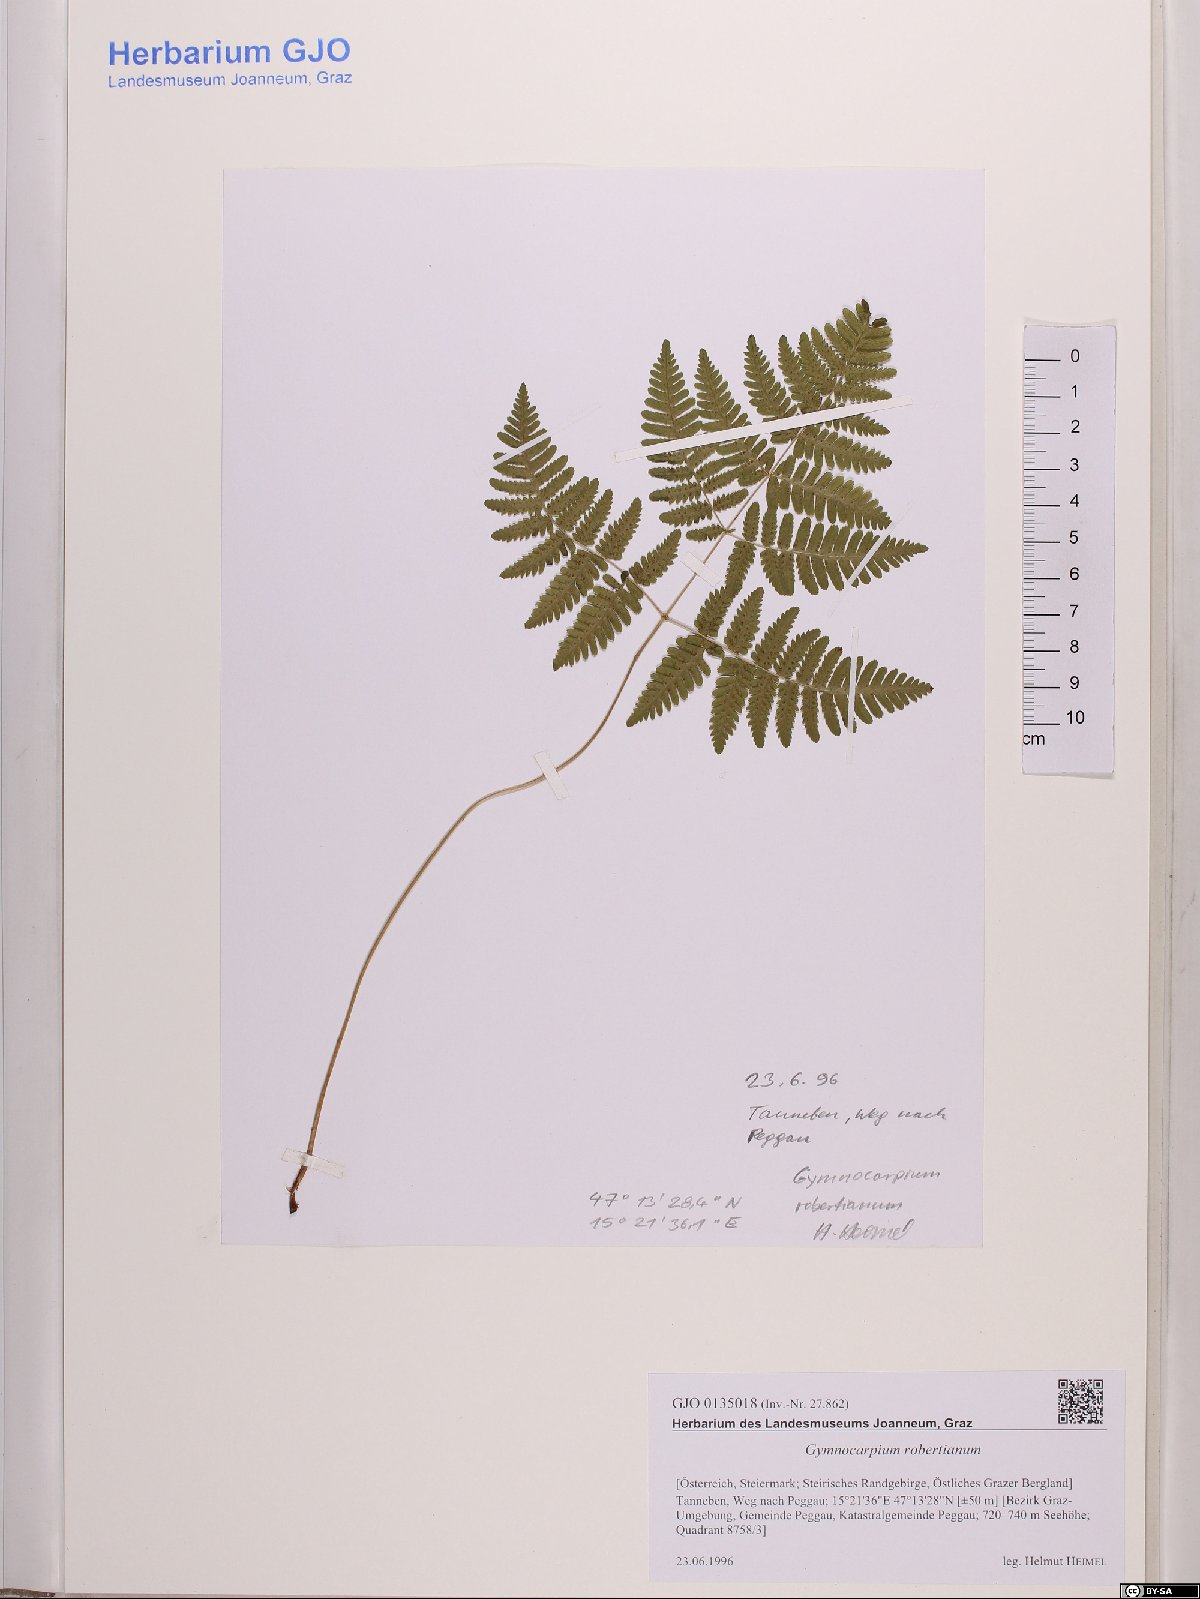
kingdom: Plantae
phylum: Tracheophyta
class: Polypodiopsida
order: Polypodiales
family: Cystopteridaceae
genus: Gymnocarpium
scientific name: Gymnocarpium robertianum
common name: Limestone fern
